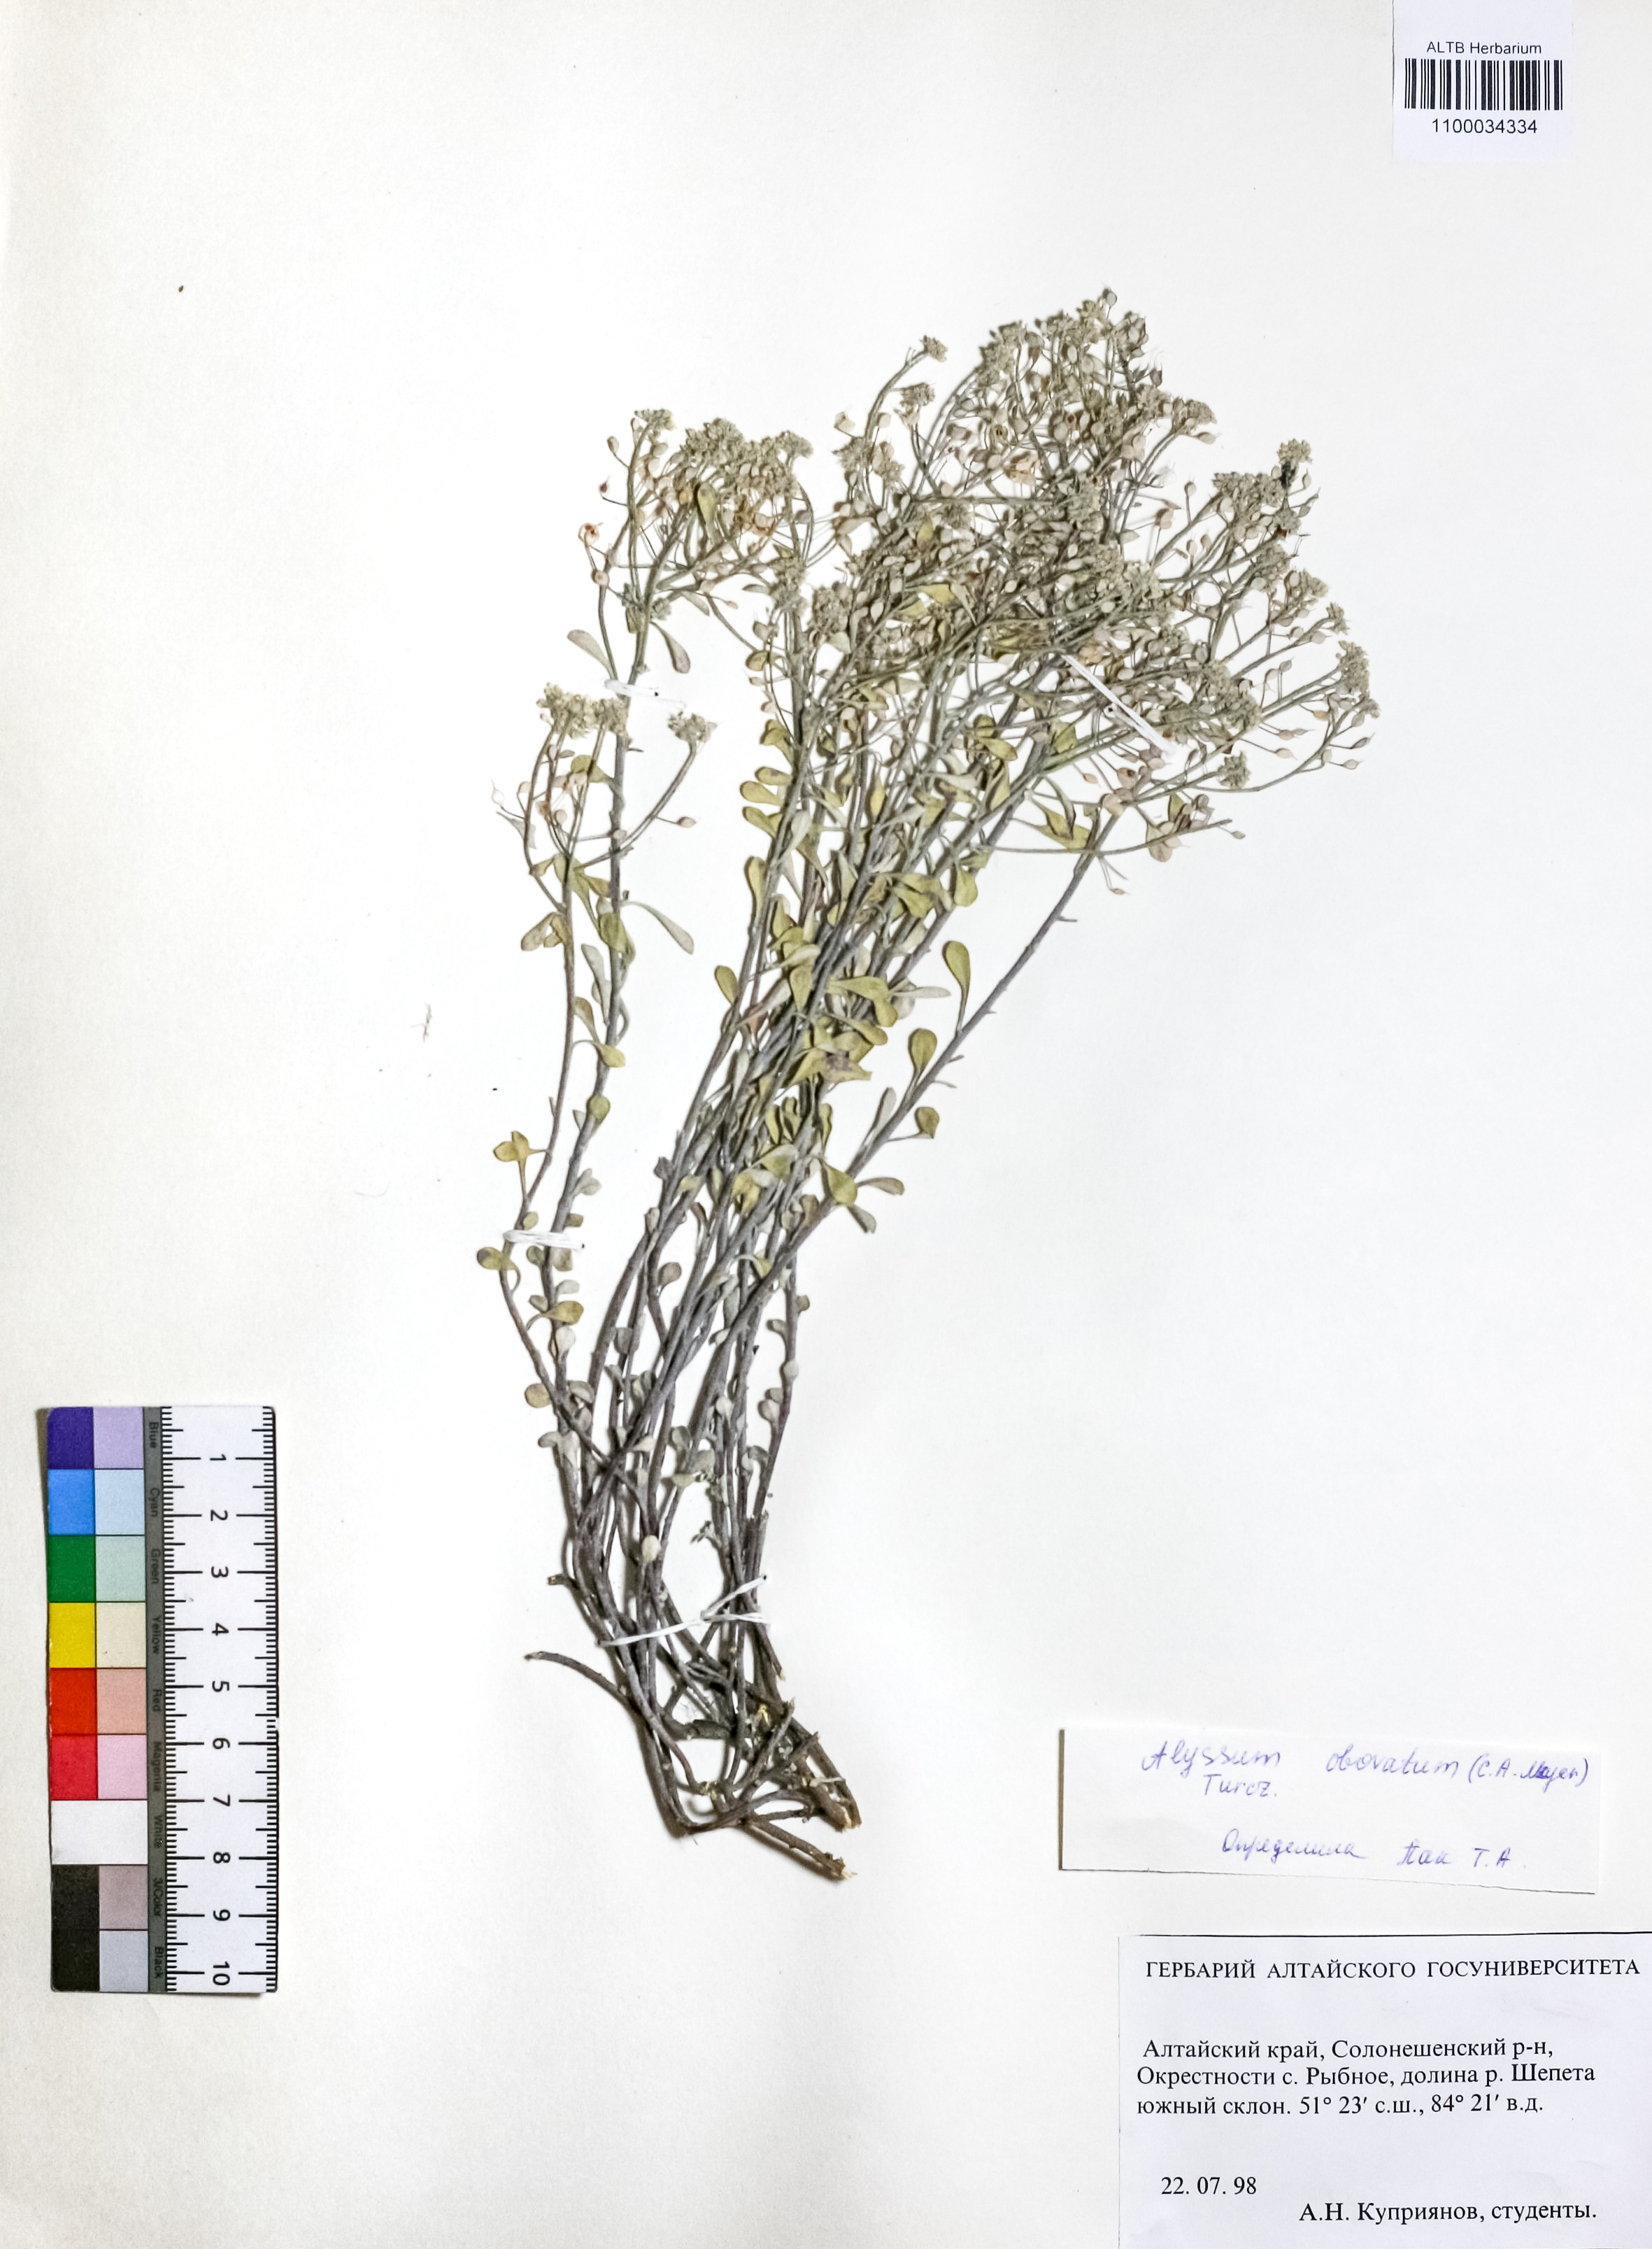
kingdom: Plantae
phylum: Tracheophyta
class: Magnoliopsida
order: Brassicales
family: Brassicaceae
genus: Odontarrhena
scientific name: Odontarrhena obovata
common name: American alyssum
